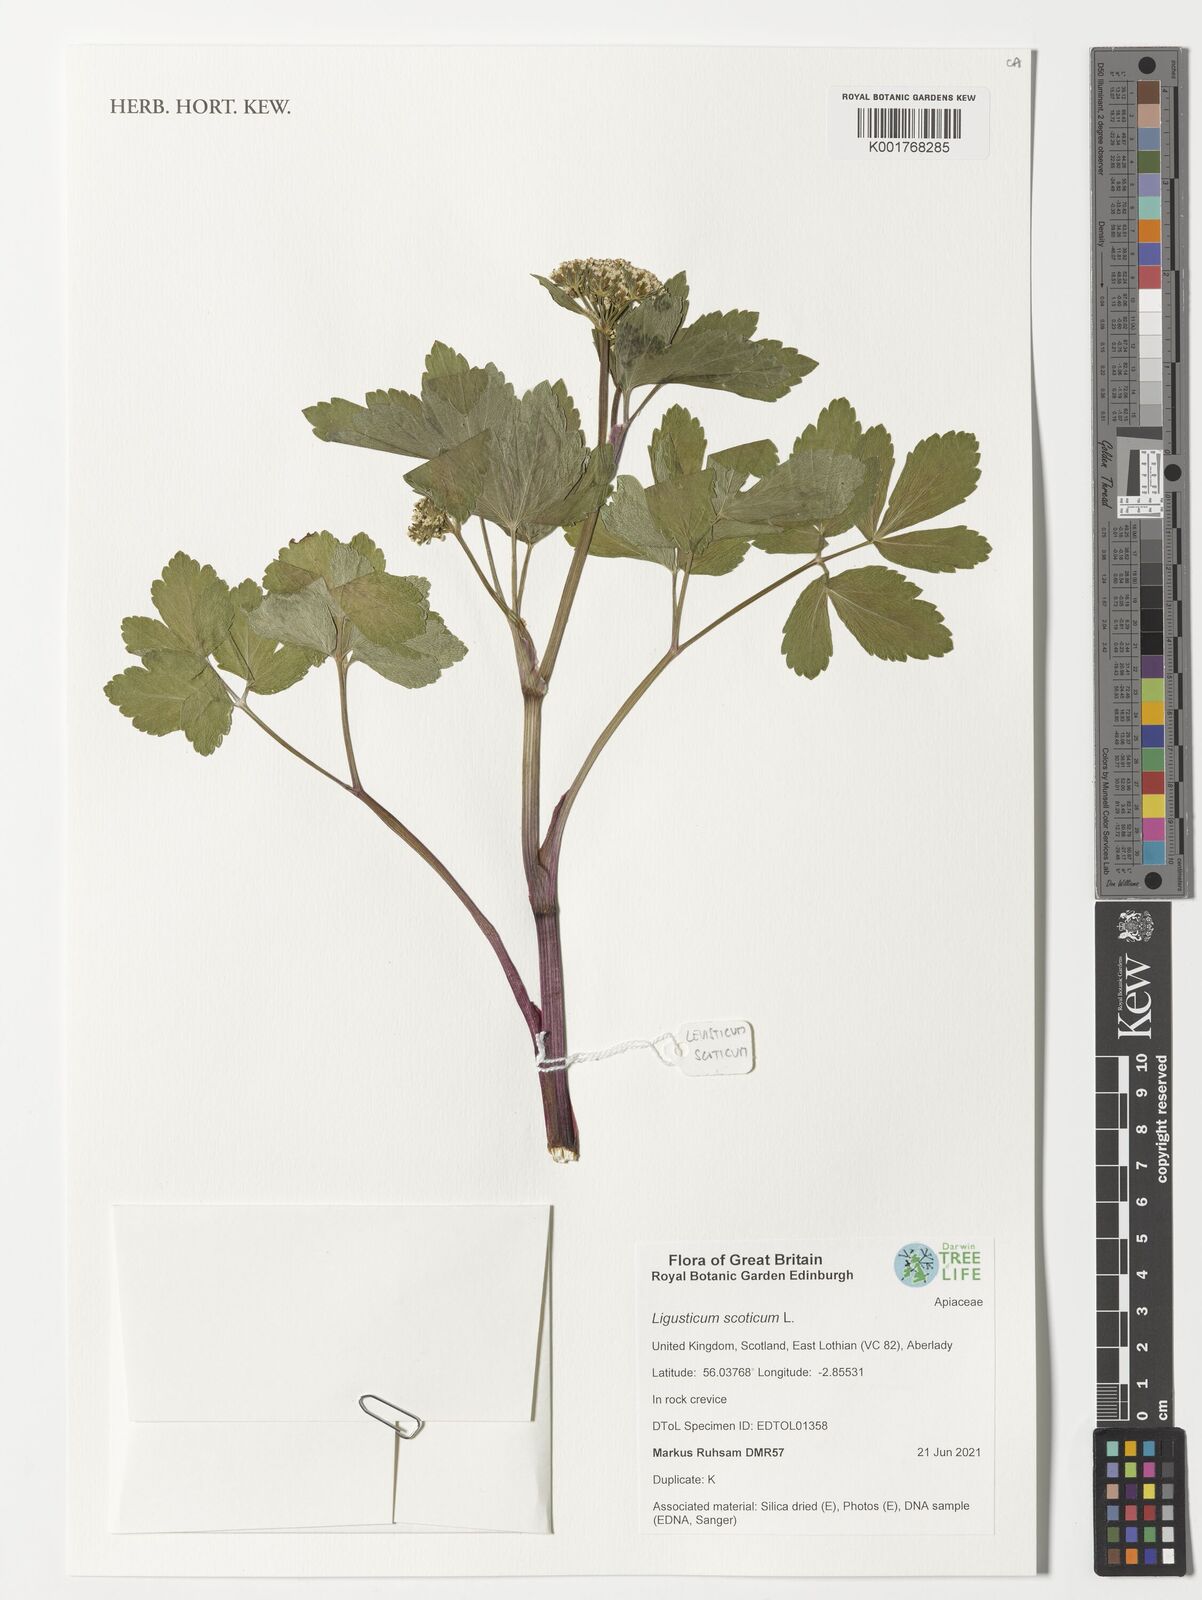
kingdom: Plantae
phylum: Tracheophyta
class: Magnoliopsida
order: Apiales
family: Apiaceae
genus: Ligusticum
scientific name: Ligusticum scothicum
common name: Beach lovage
